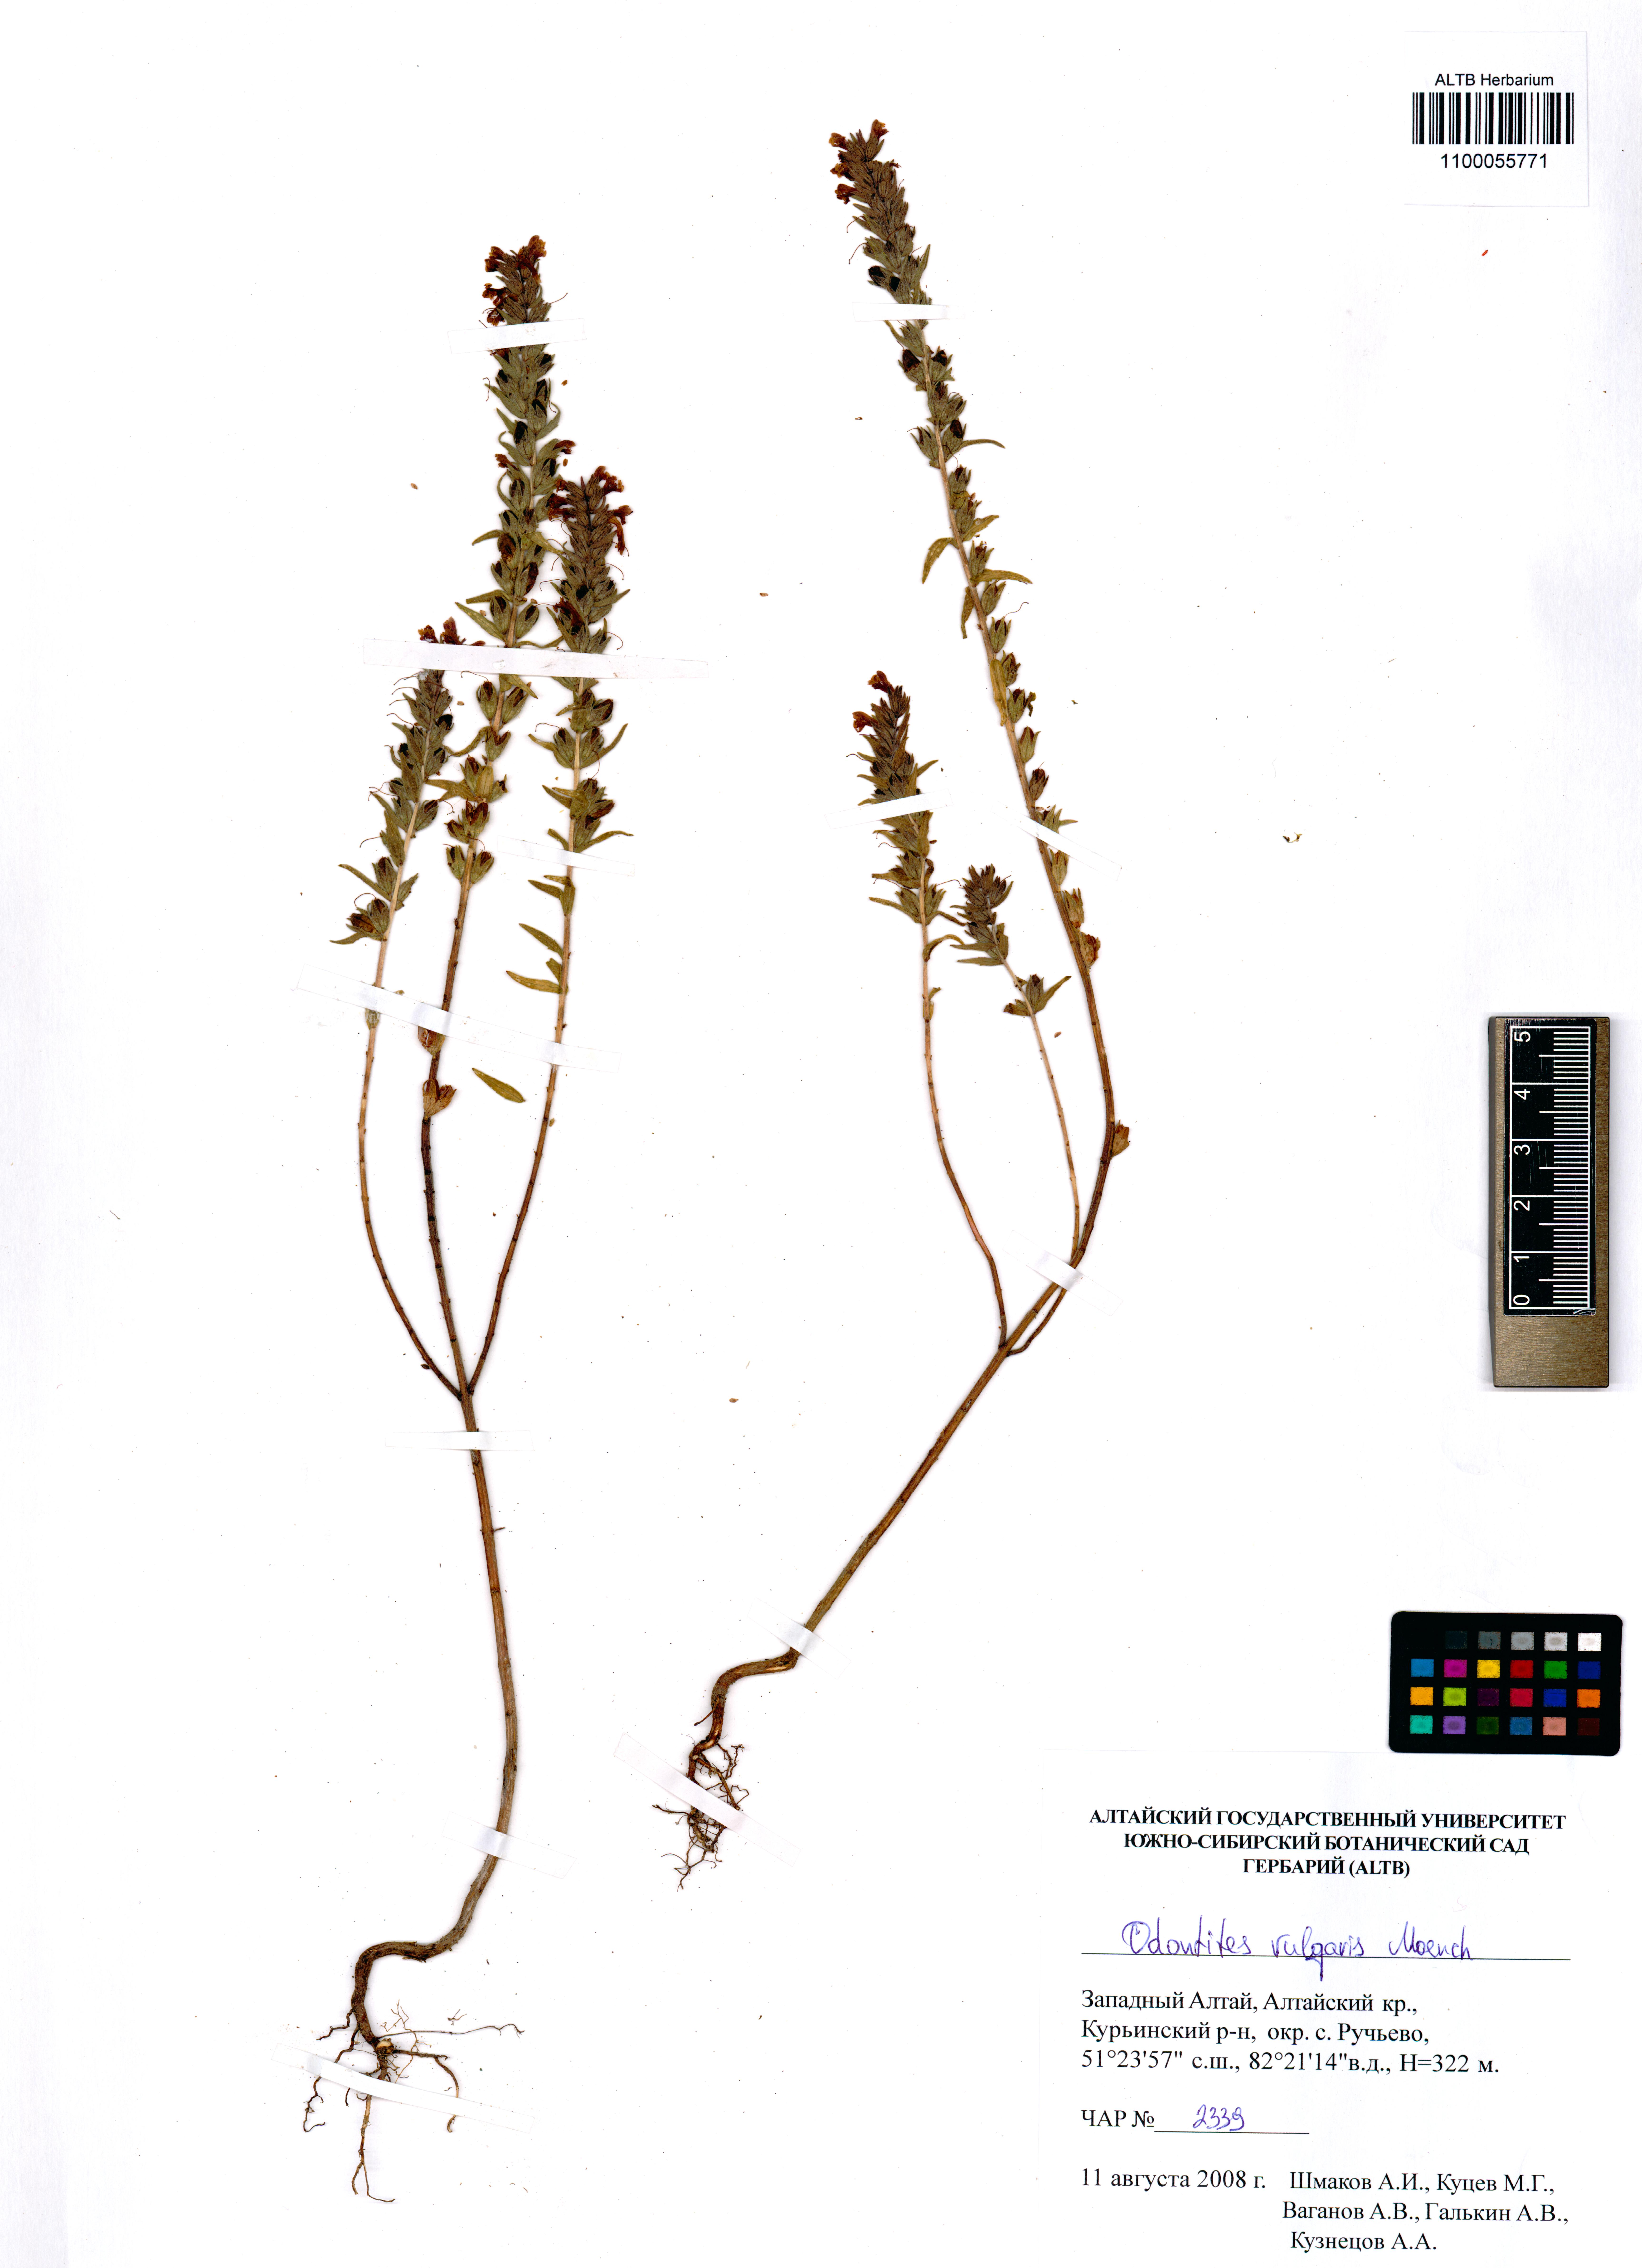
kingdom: Plantae
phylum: Tracheophyta
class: Magnoliopsida
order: Lamiales
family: Orobanchaceae
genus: Odontites
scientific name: Odontites vulgaris
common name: Broomrape
